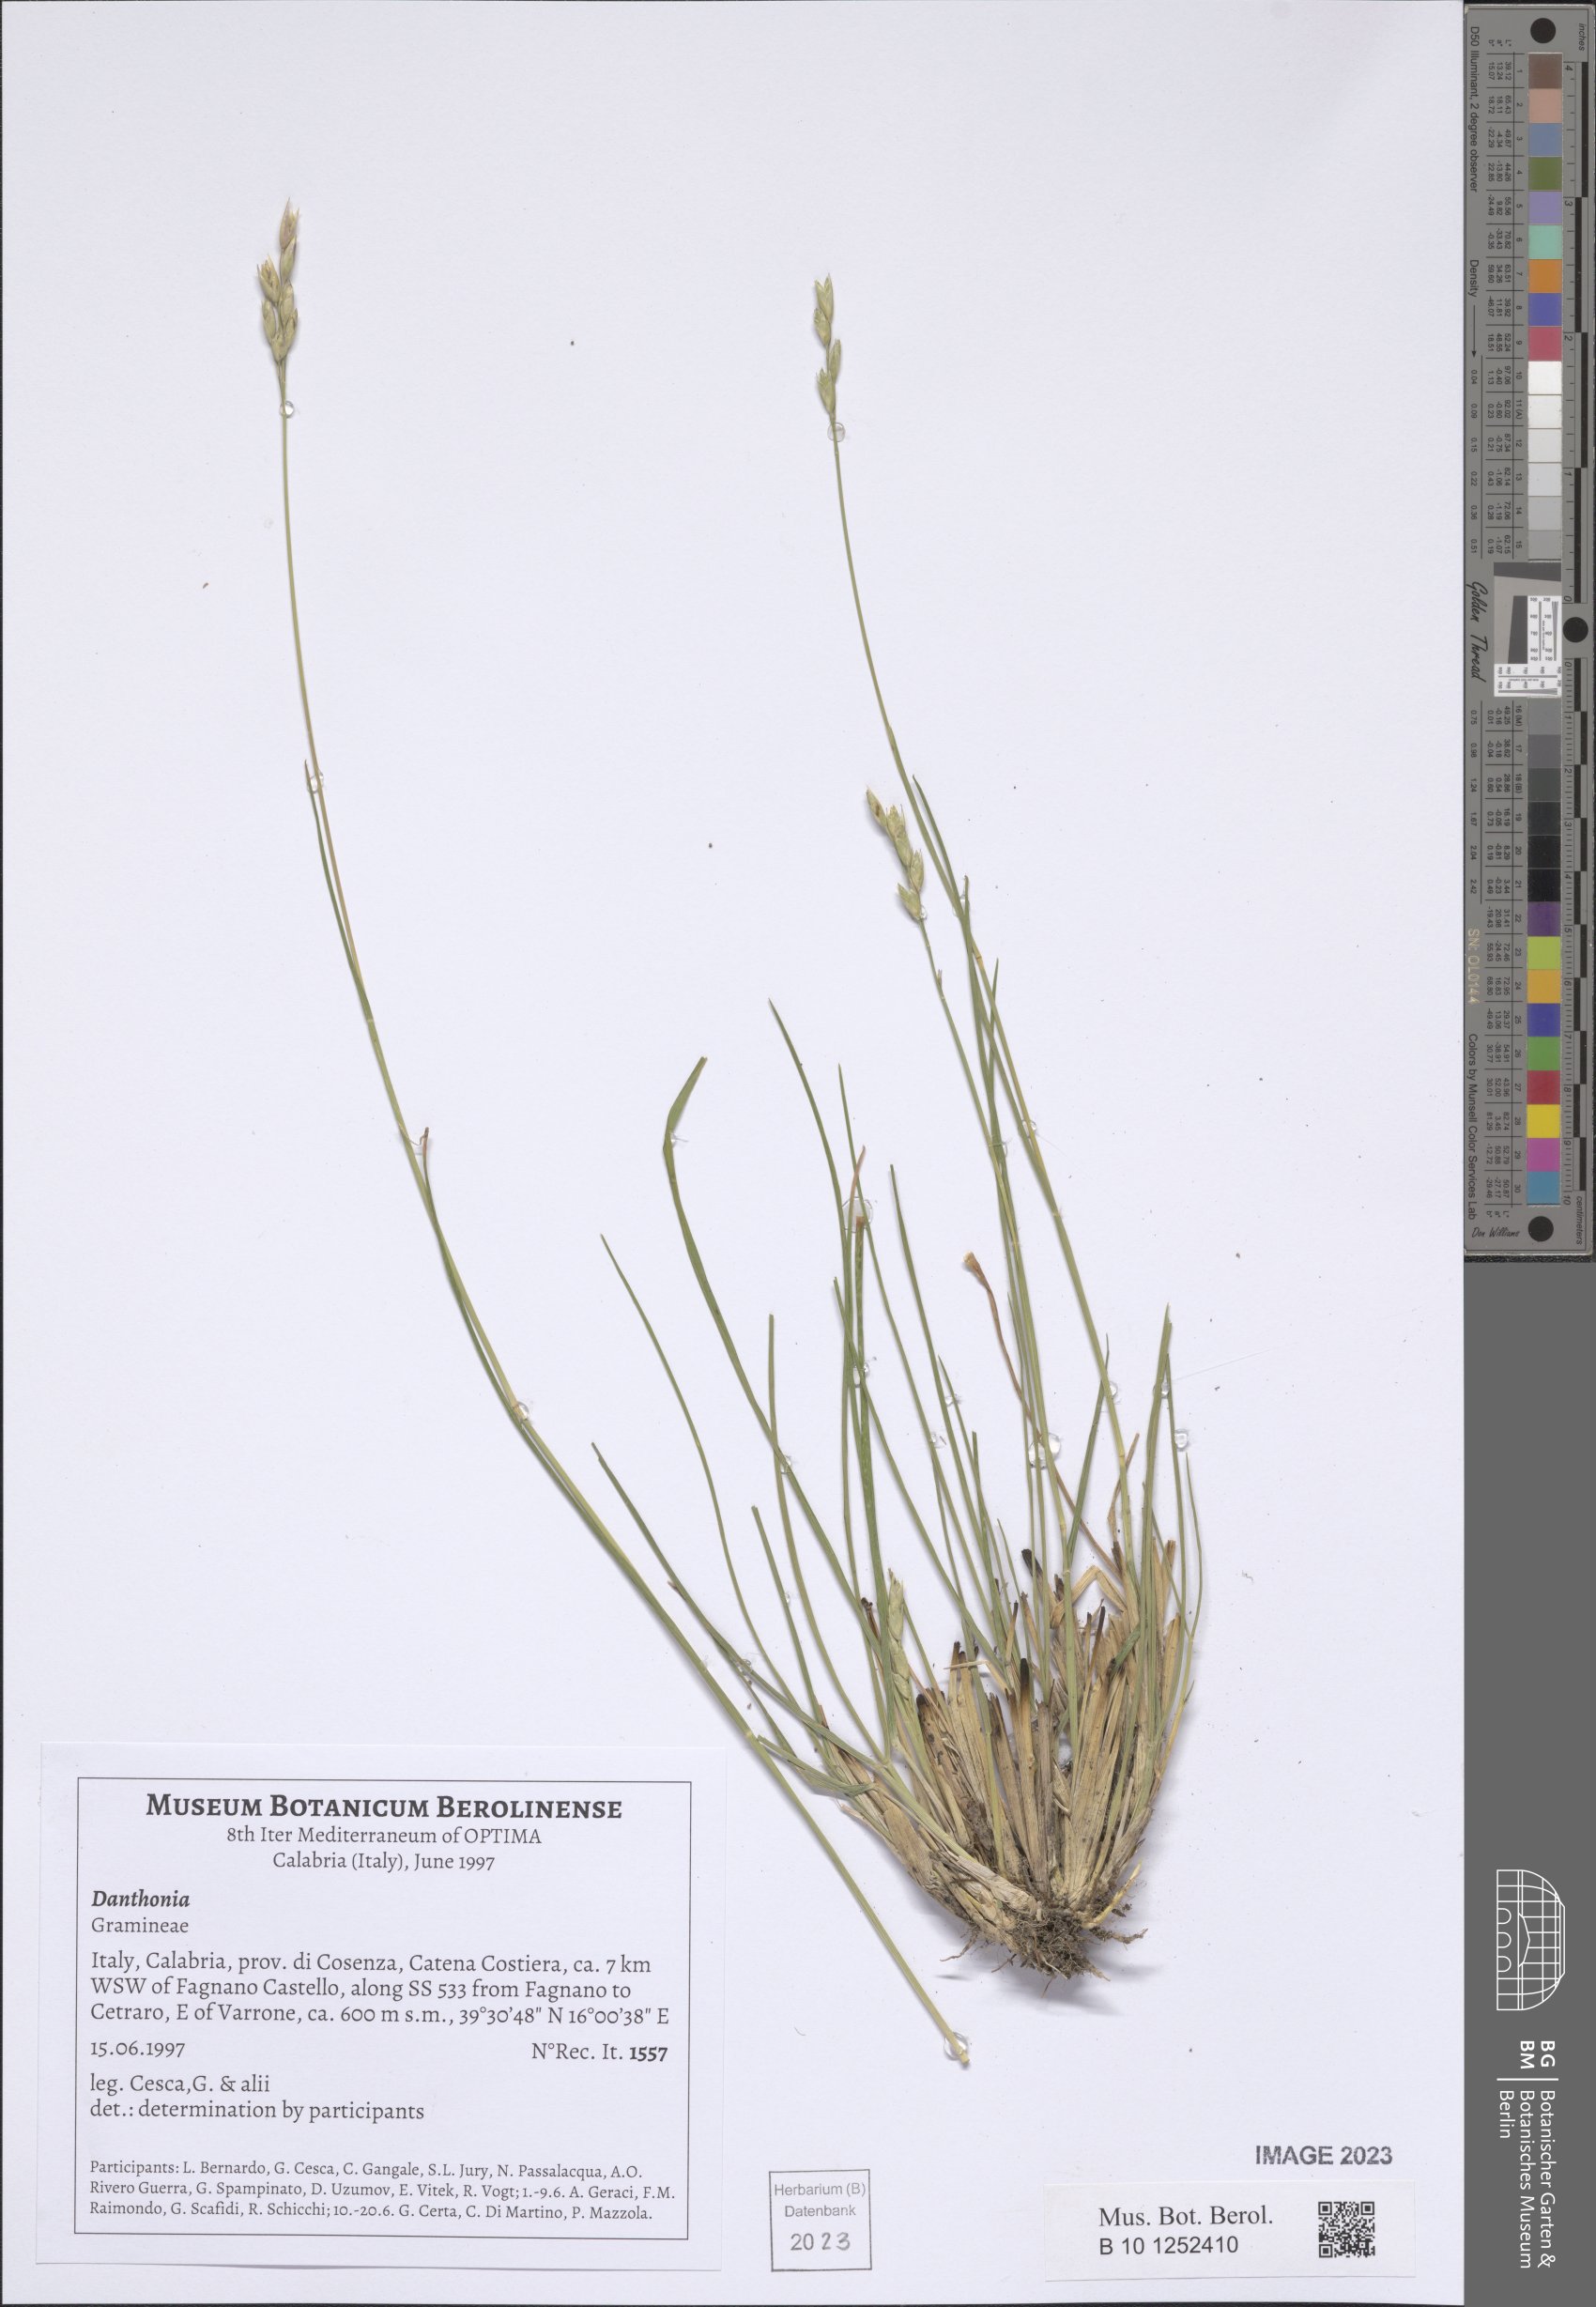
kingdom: Plantae
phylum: Tracheophyta
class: Liliopsida
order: Poales
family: Poaceae
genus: Danthonia
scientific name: Danthonia
